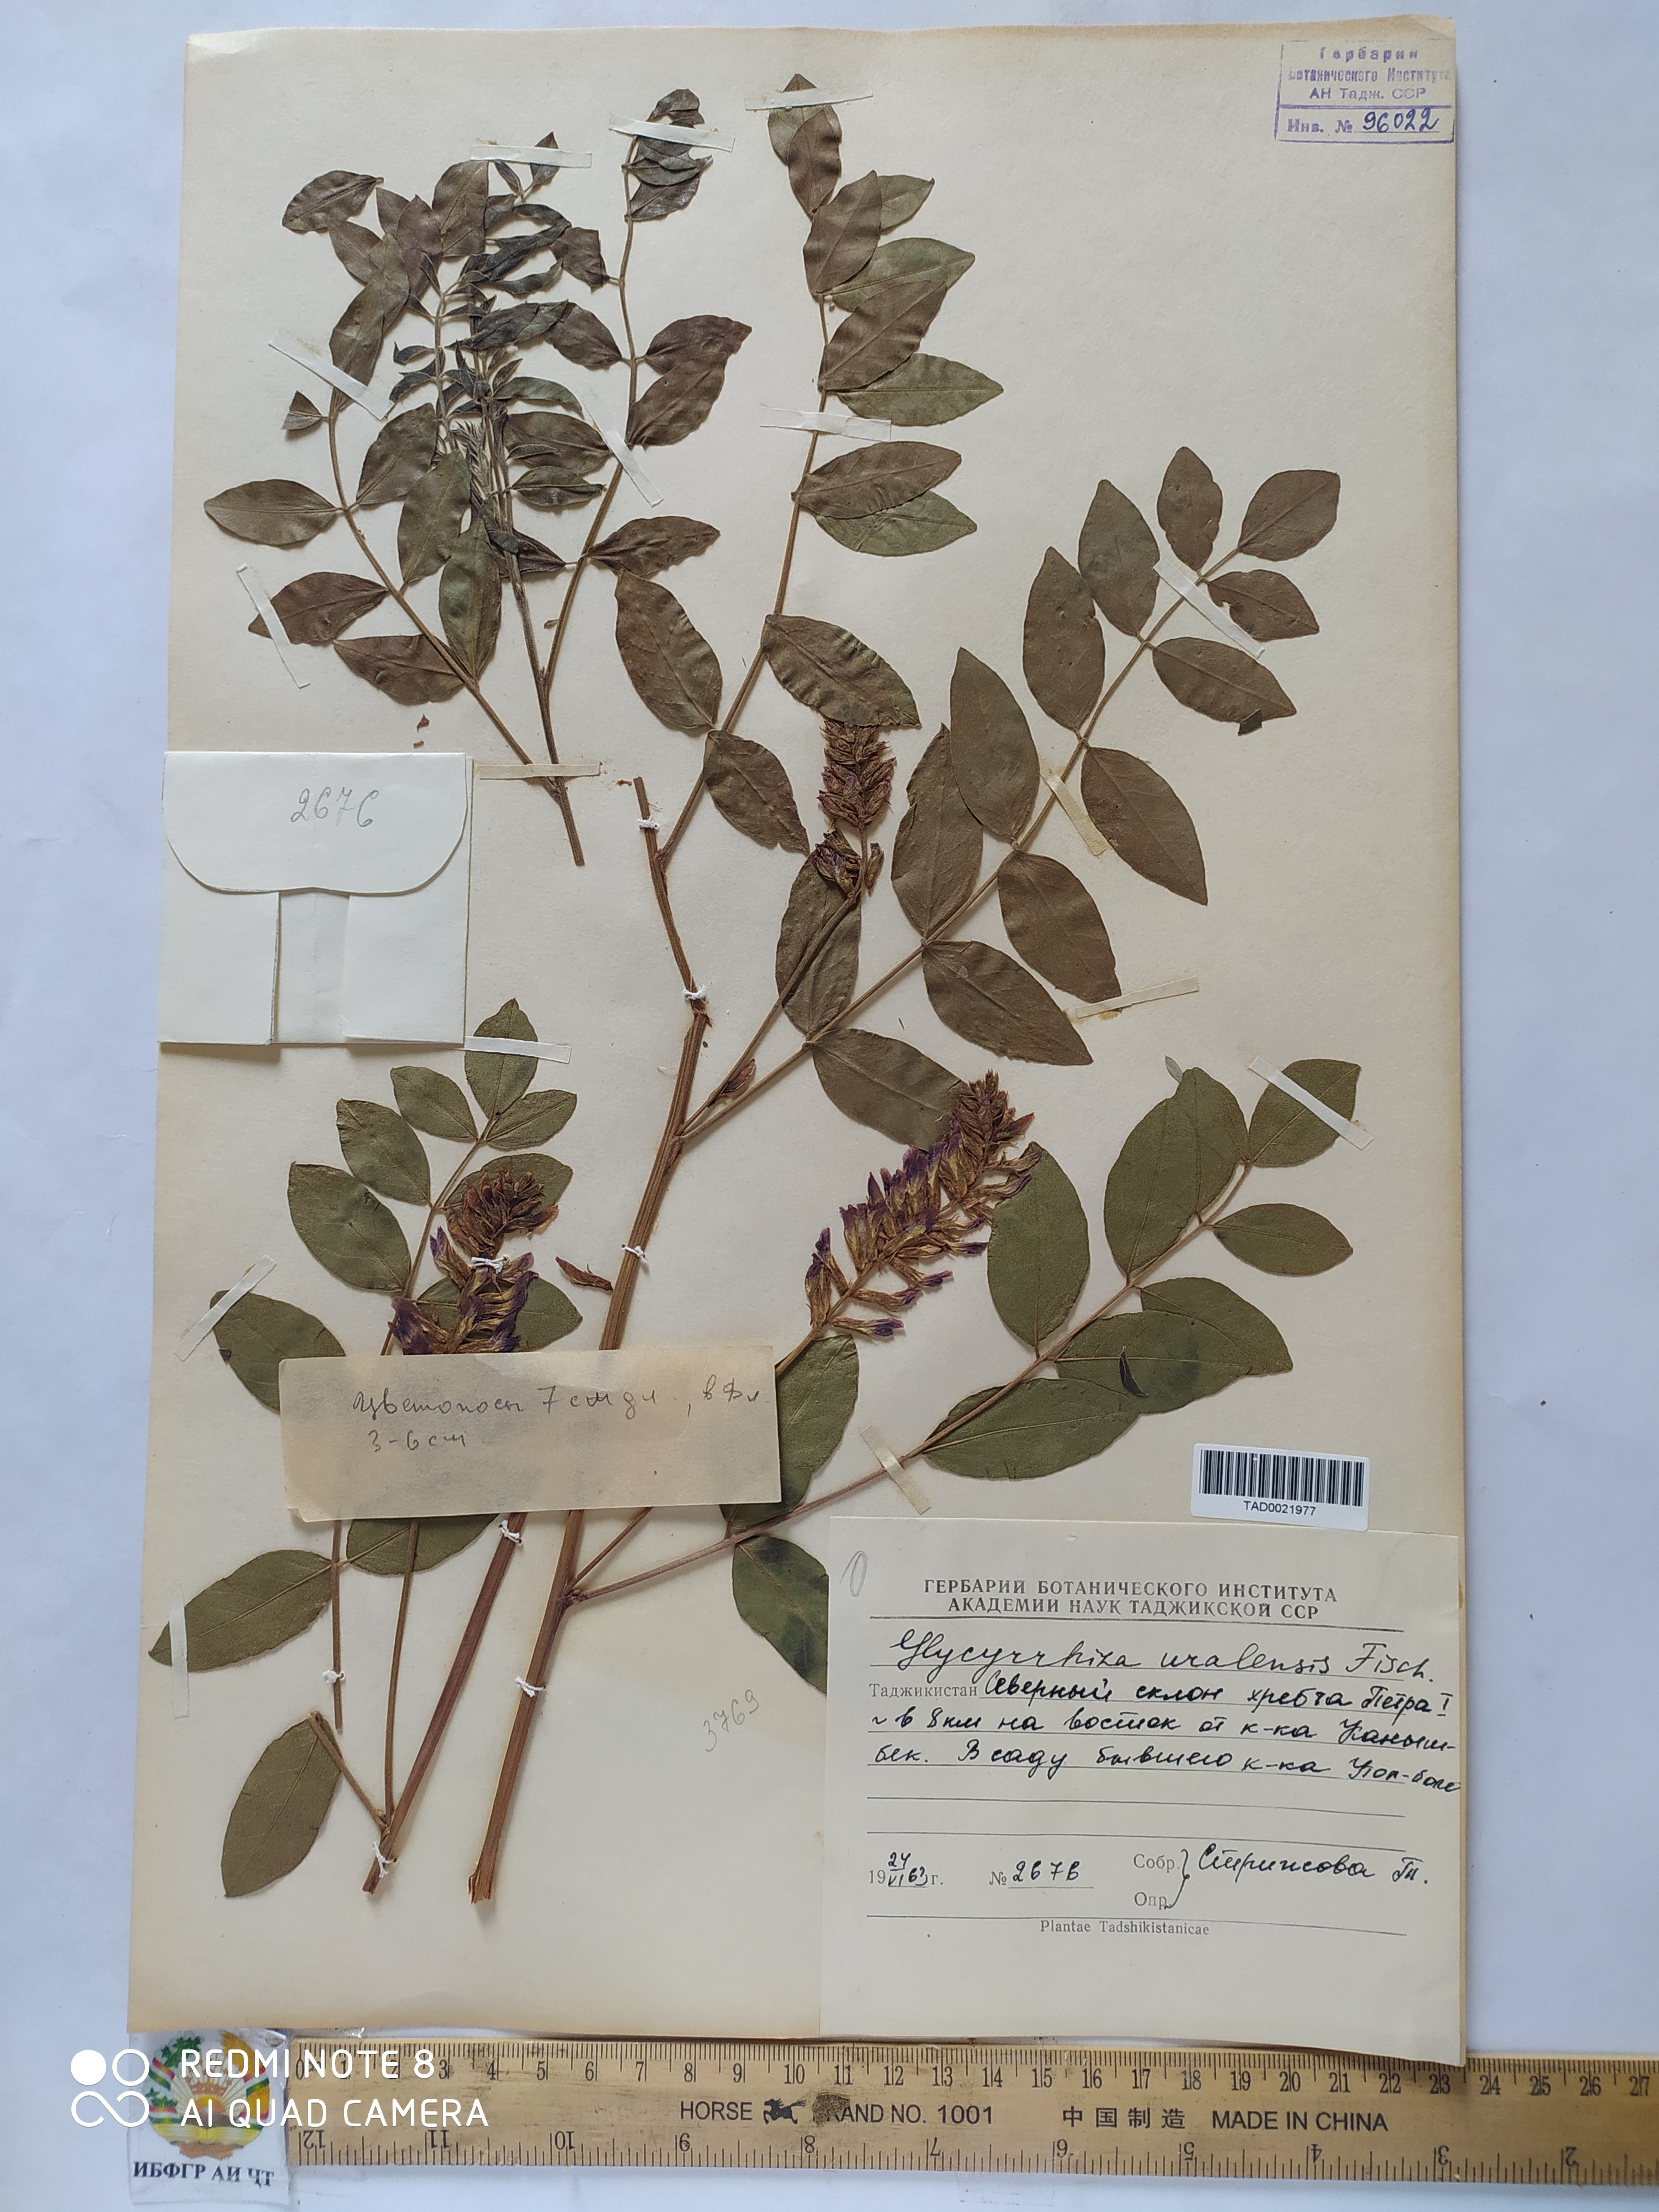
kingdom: Plantae
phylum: Tracheophyta
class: Magnoliopsida
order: Fabales
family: Fabaceae
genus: Glycyrrhiza
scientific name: Glycyrrhiza uralensis
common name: Chinese licorice
